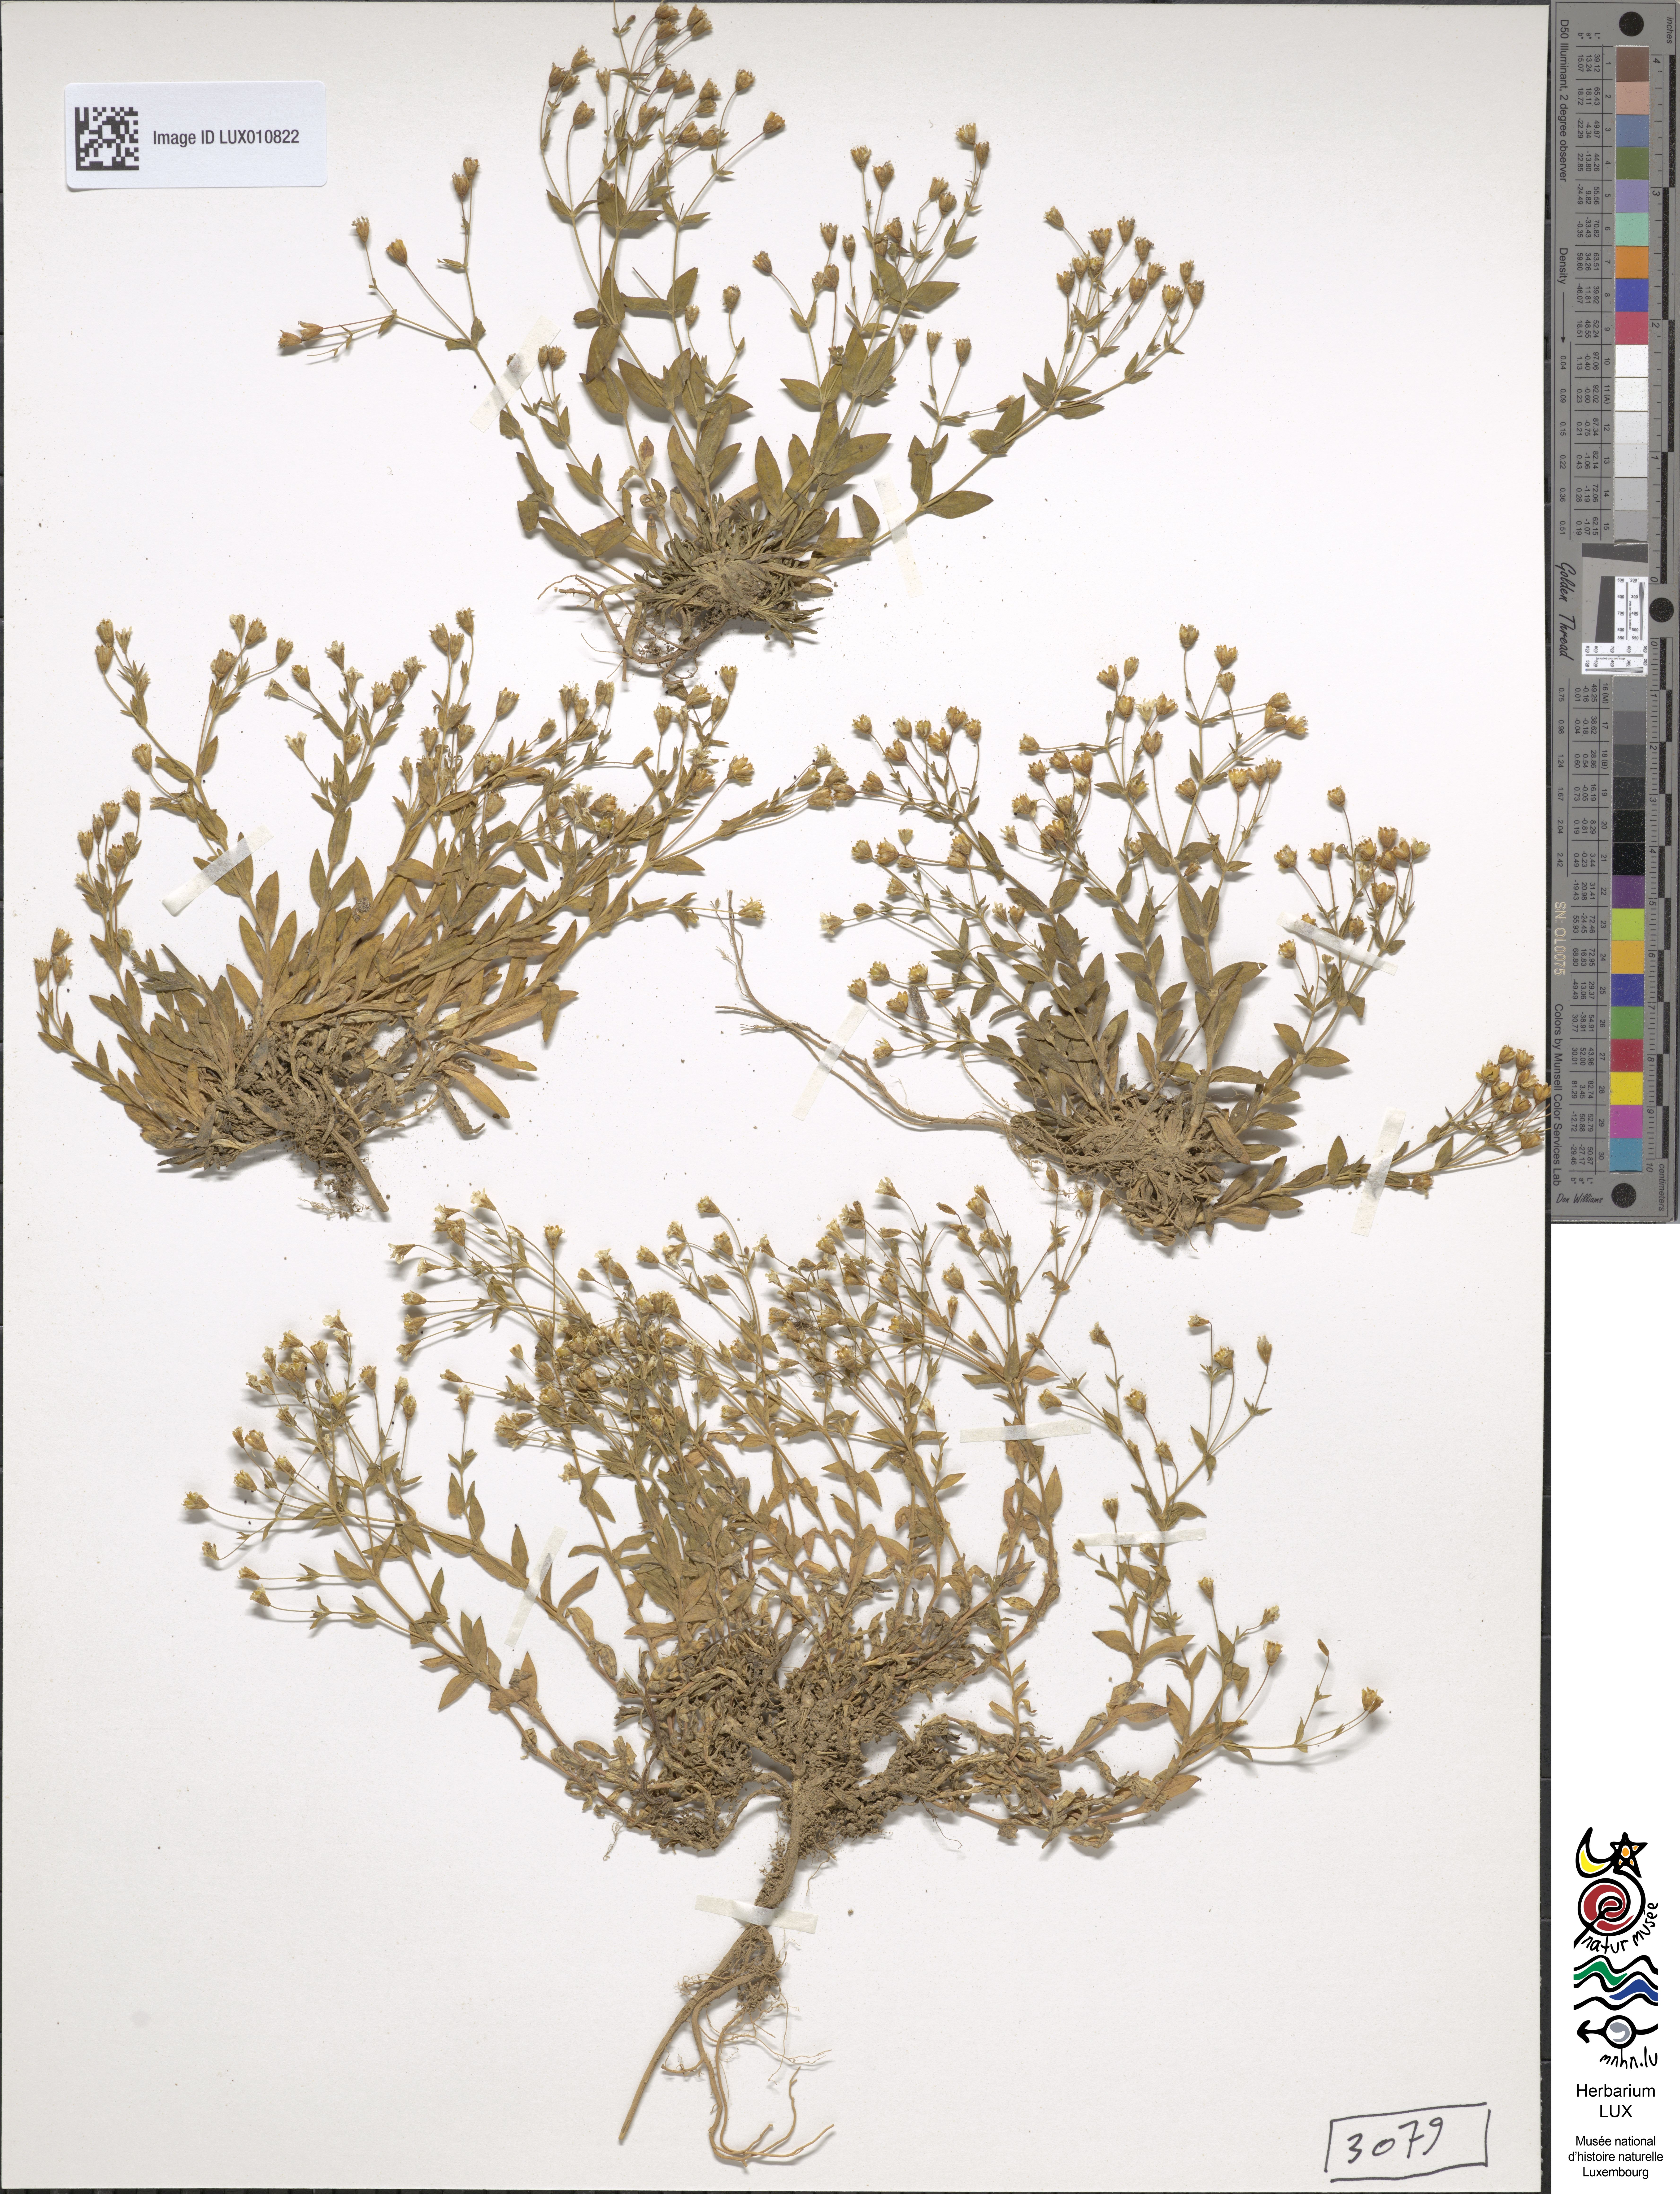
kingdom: Plantae
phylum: Tracheophyta
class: Magnoliopsida
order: Caryophyllales
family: Caryophyllaceae
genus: Atocion
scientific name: Atocion rupestre
